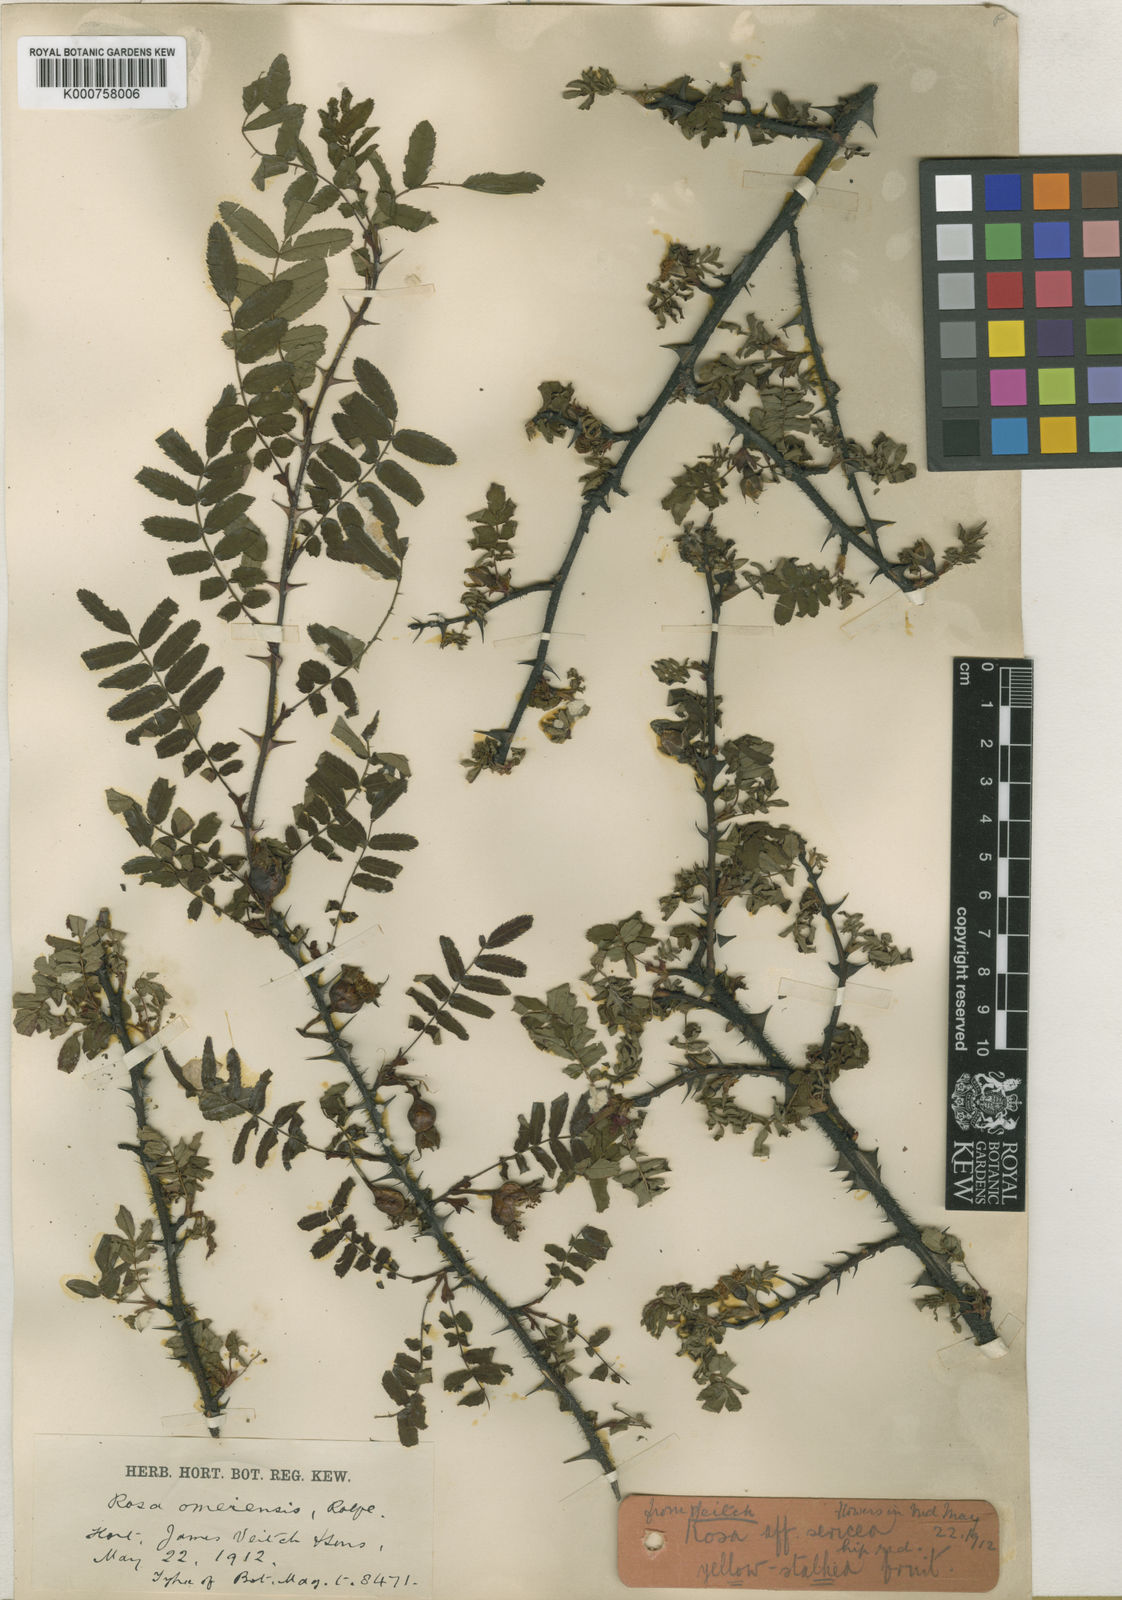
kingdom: Plantae
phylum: Tracheophyta
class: Magnoliopsida
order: Rosales
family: Rosaceae
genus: Rosa
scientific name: Rosa omeiensis
